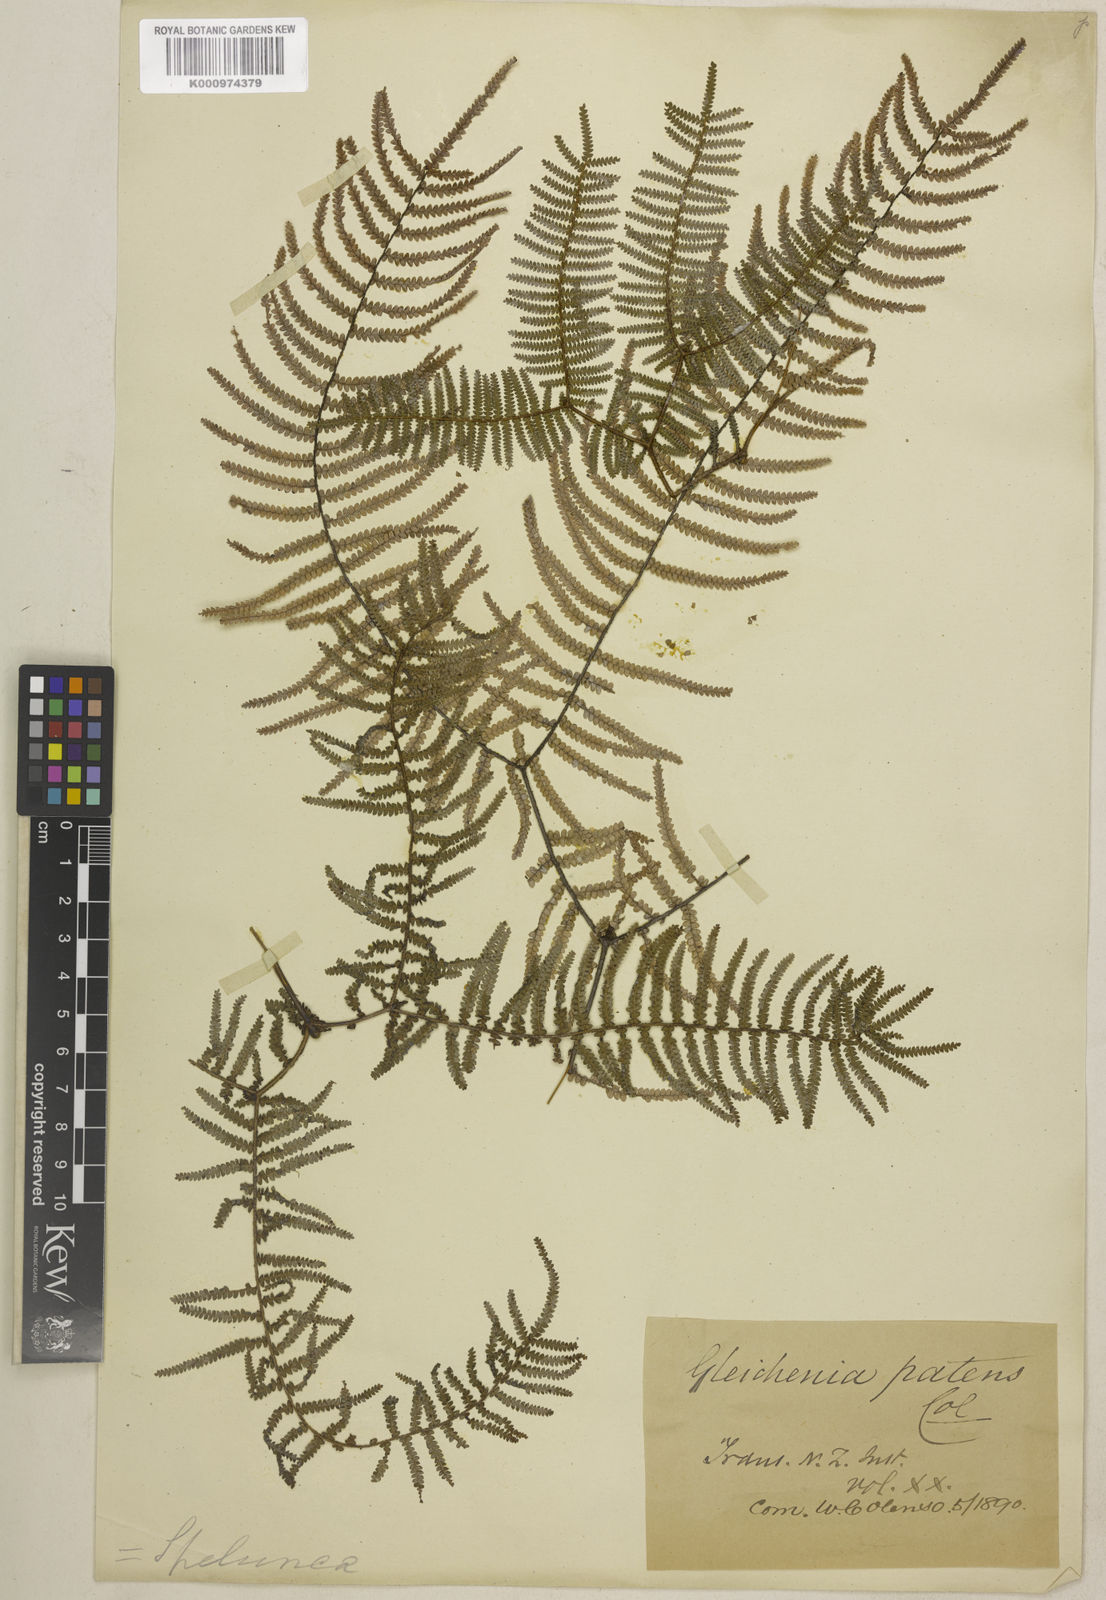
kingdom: Plantae
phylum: Tracheophyta
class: Polypodiopsida
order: Gleicheniales
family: Gleicheniaceae
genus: Gleichenia
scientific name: Gleichenia microphylla
